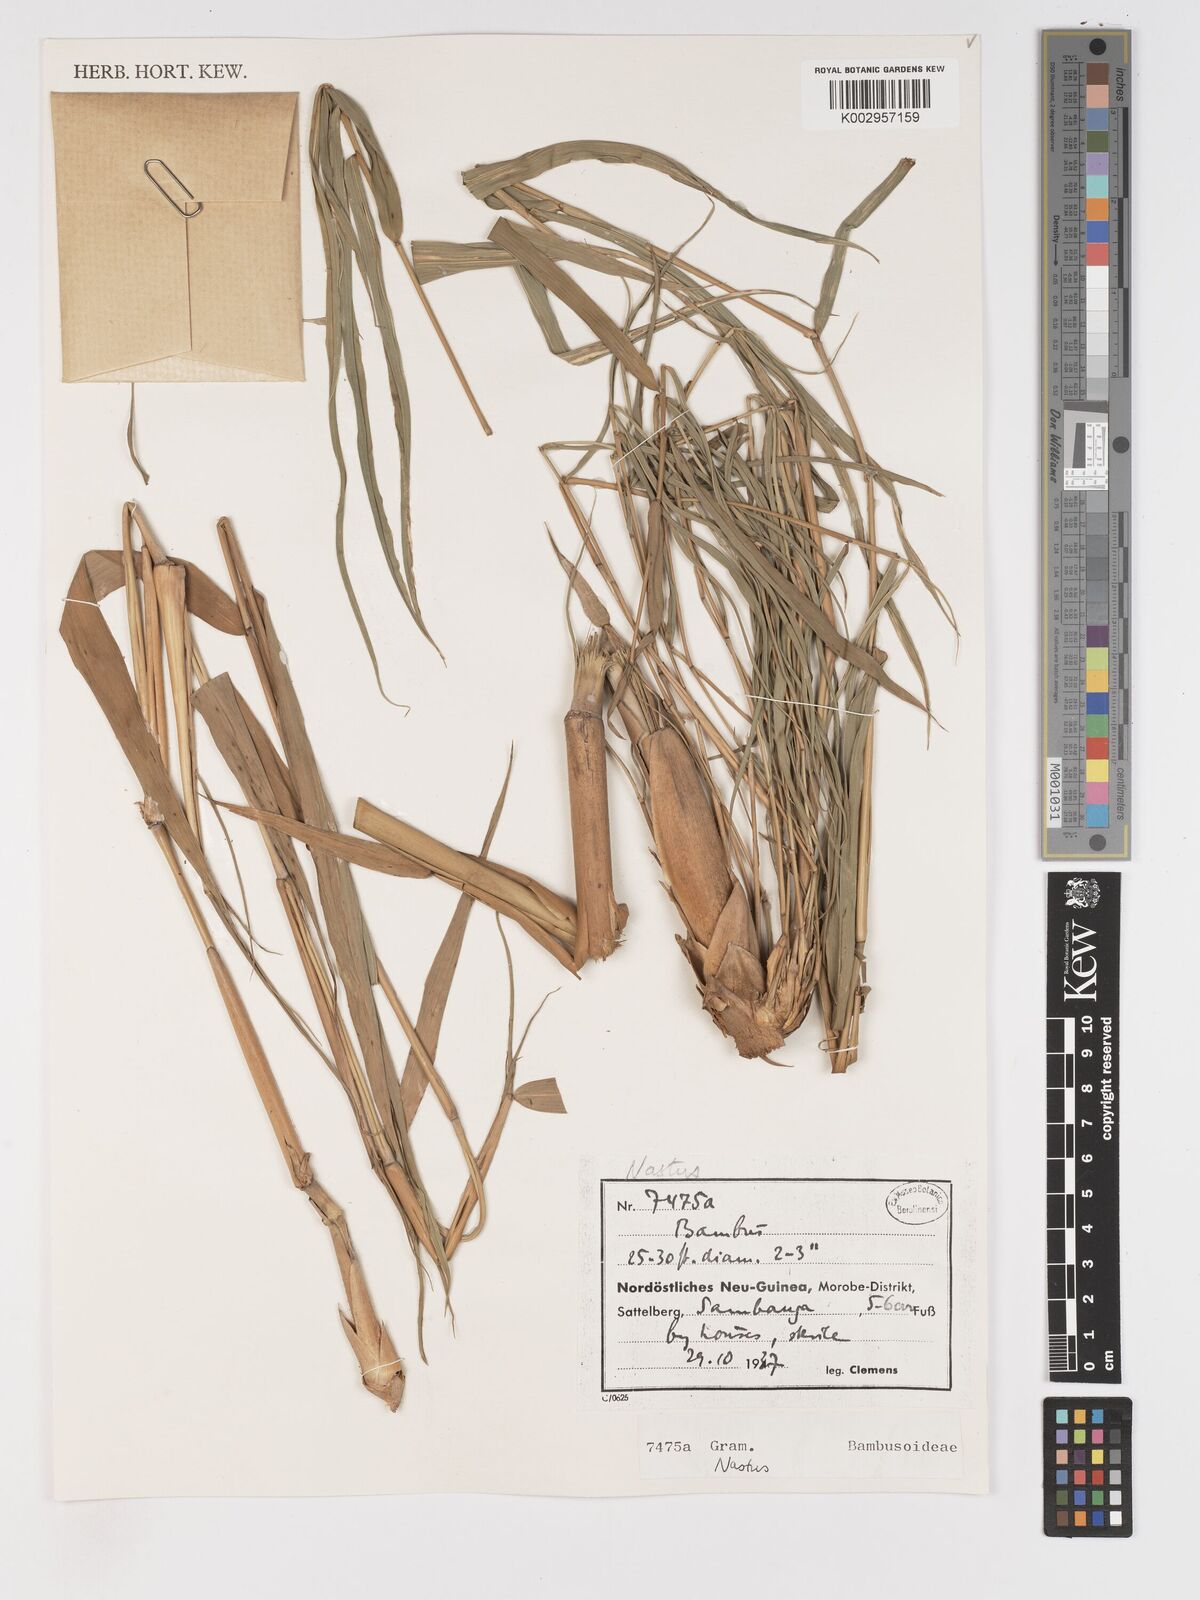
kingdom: Plantae
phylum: Tracheophyta
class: Liliopsida
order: Poales
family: Poaceae
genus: Chloothamnus
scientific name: Chloothamnus
